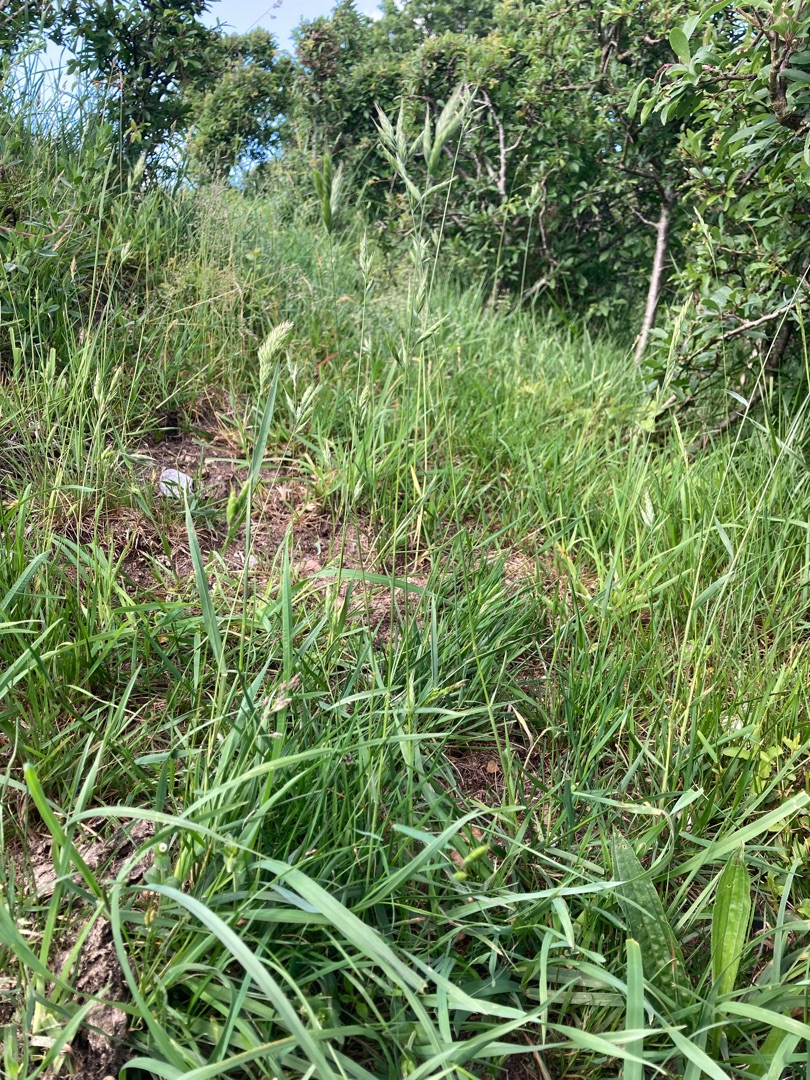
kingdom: Plantae
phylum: Tracheophyta
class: Liliopsida
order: Poales
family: Poaceae
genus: Bromus
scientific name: Bromus hordeaceus
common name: Blød hejre
